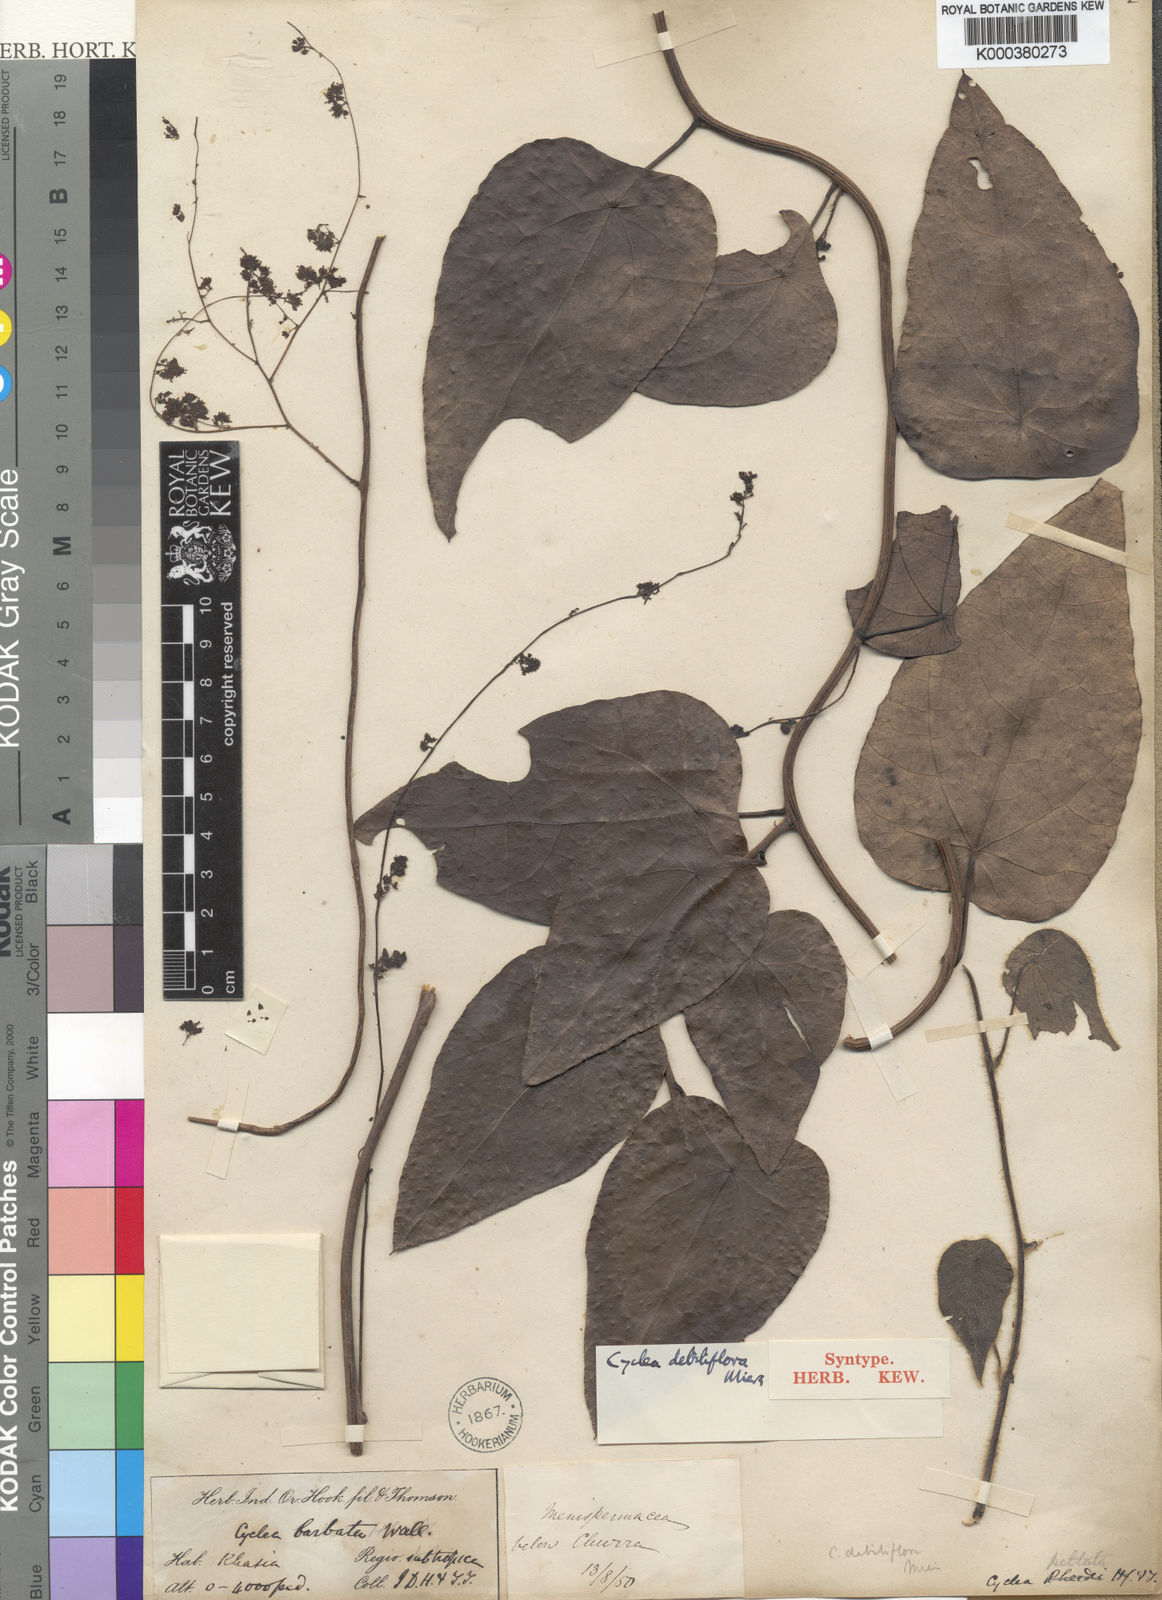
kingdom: Plantae
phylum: Tracheophyta
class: Magnoliopsida
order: Ranunculales
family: Menispermaceae
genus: Cyclea
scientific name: Cyclea debiliflora
